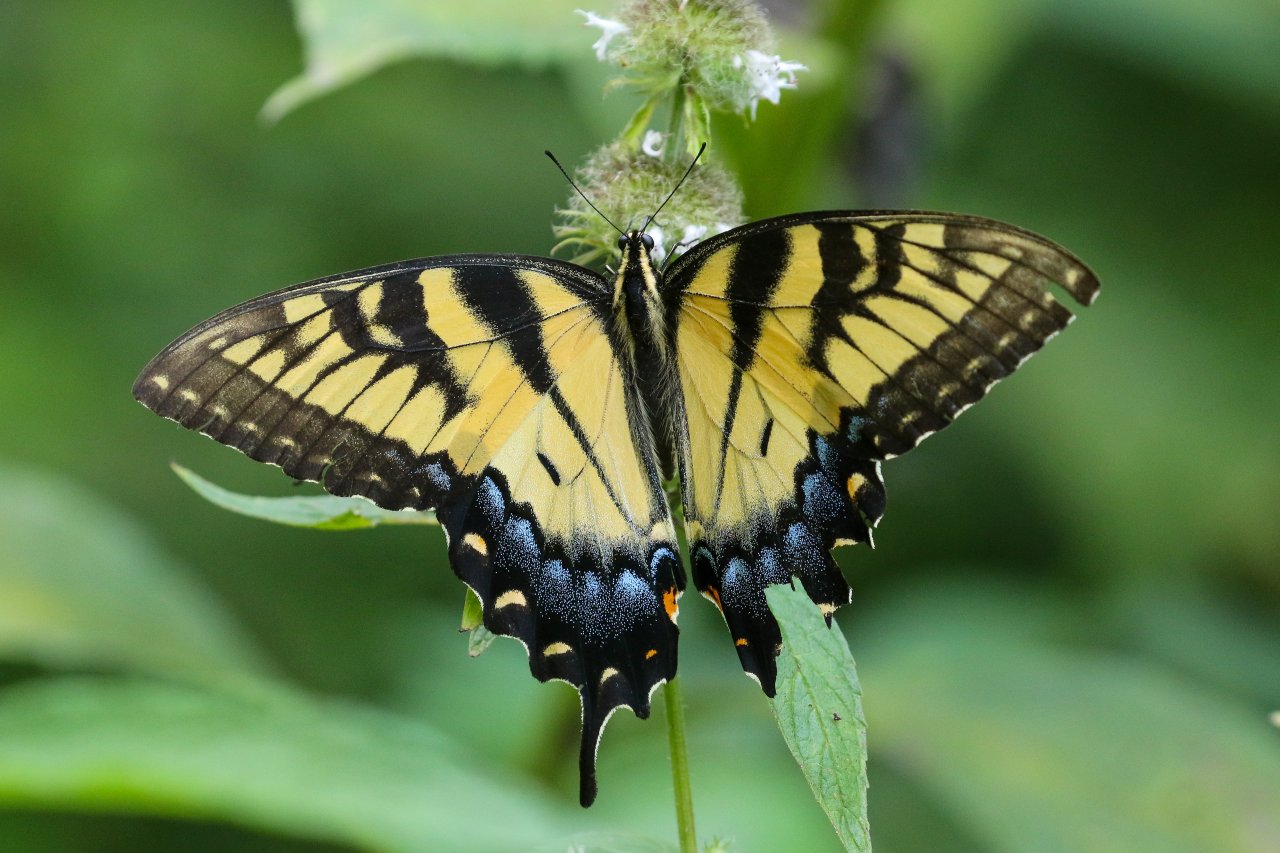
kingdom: Animalia
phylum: Arthropoda
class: Insecta
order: Lepidoptera
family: Papilionidae
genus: Pterourus
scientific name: Pterourus glaucus
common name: Eastern Tiger Swallowtail
